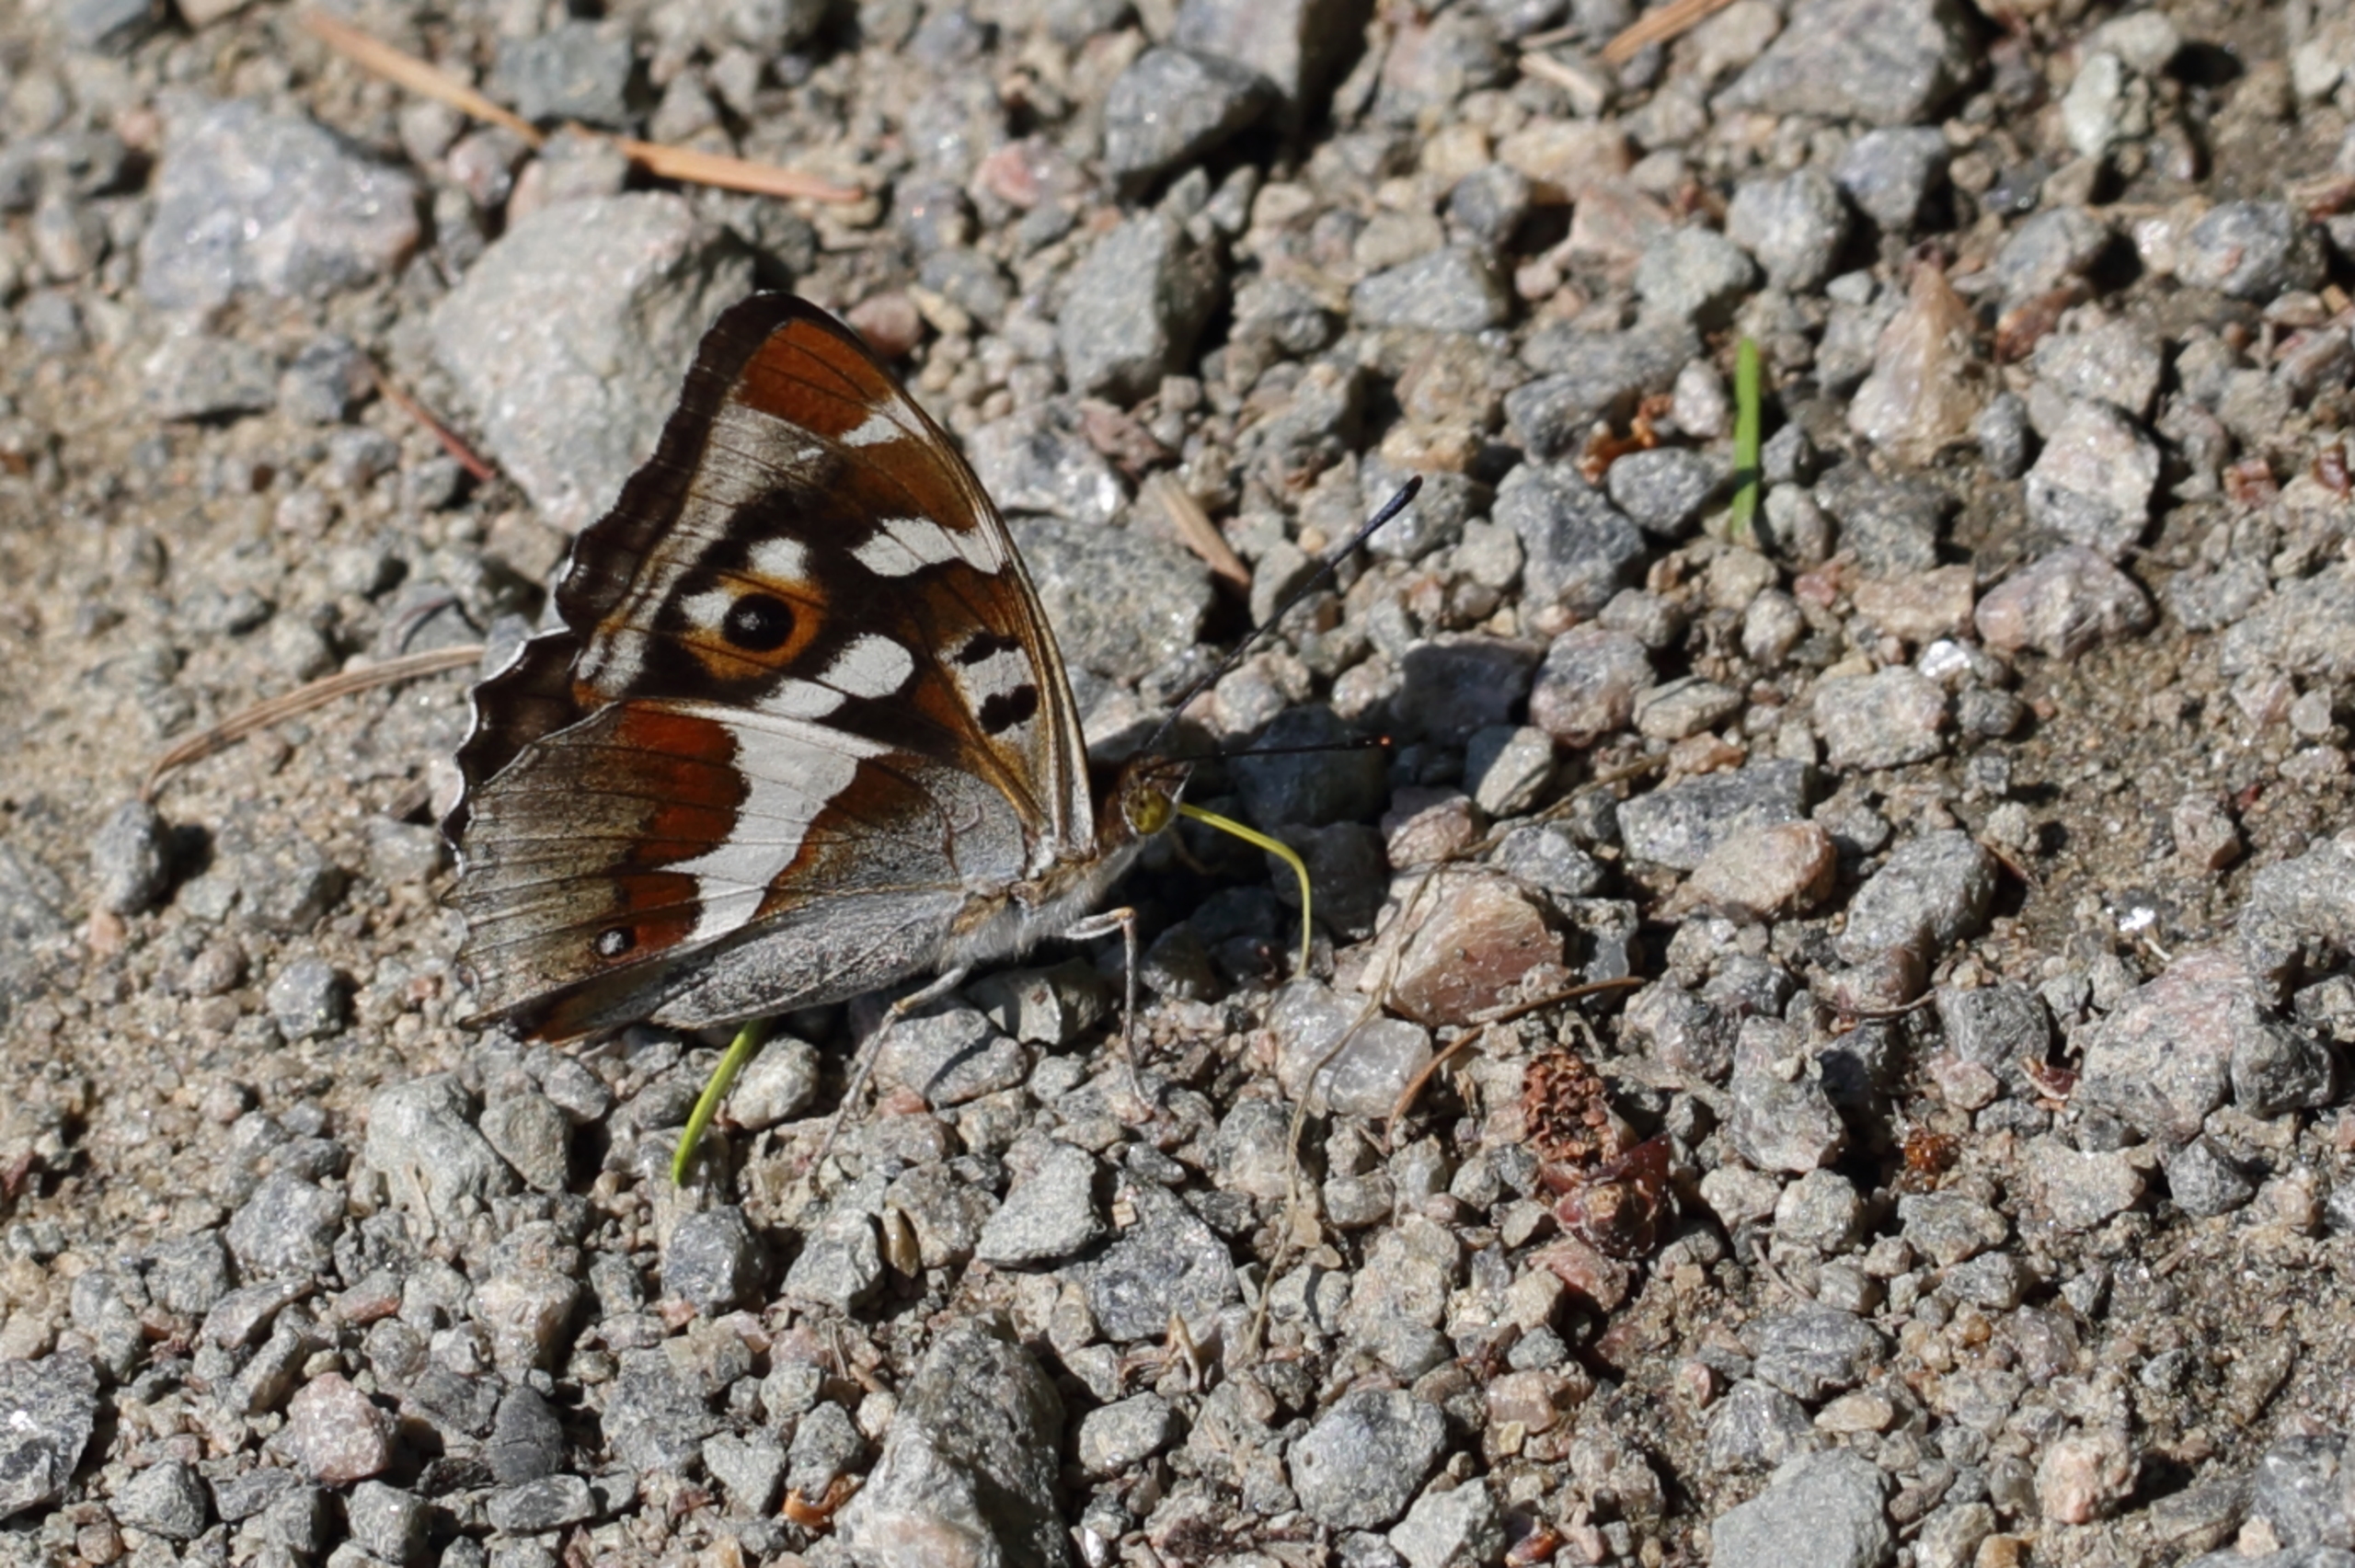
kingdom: Animalia
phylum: Arthropoda
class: Insecta
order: Lepidoptera
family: Nymphalidae
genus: Apatura
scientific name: Apatura iris
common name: Iris
